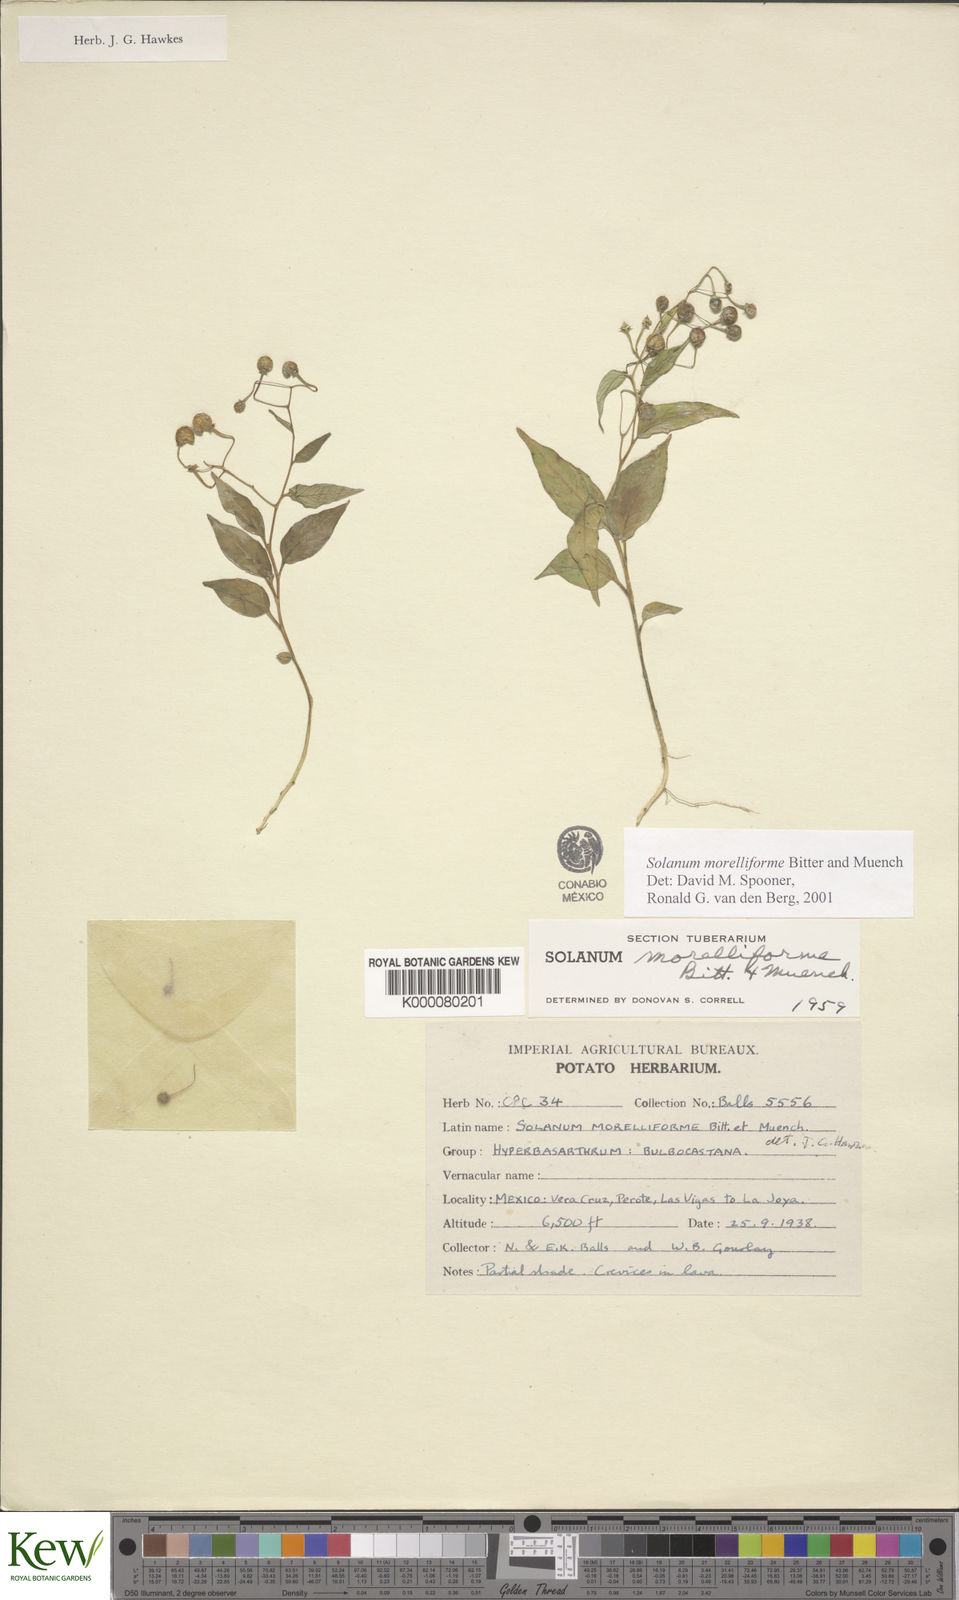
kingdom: Plantae
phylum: Tracheophyta
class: Magnoliopsida
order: Solanales
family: Solanaceae
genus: Solanum
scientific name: Solanum morelliforme
